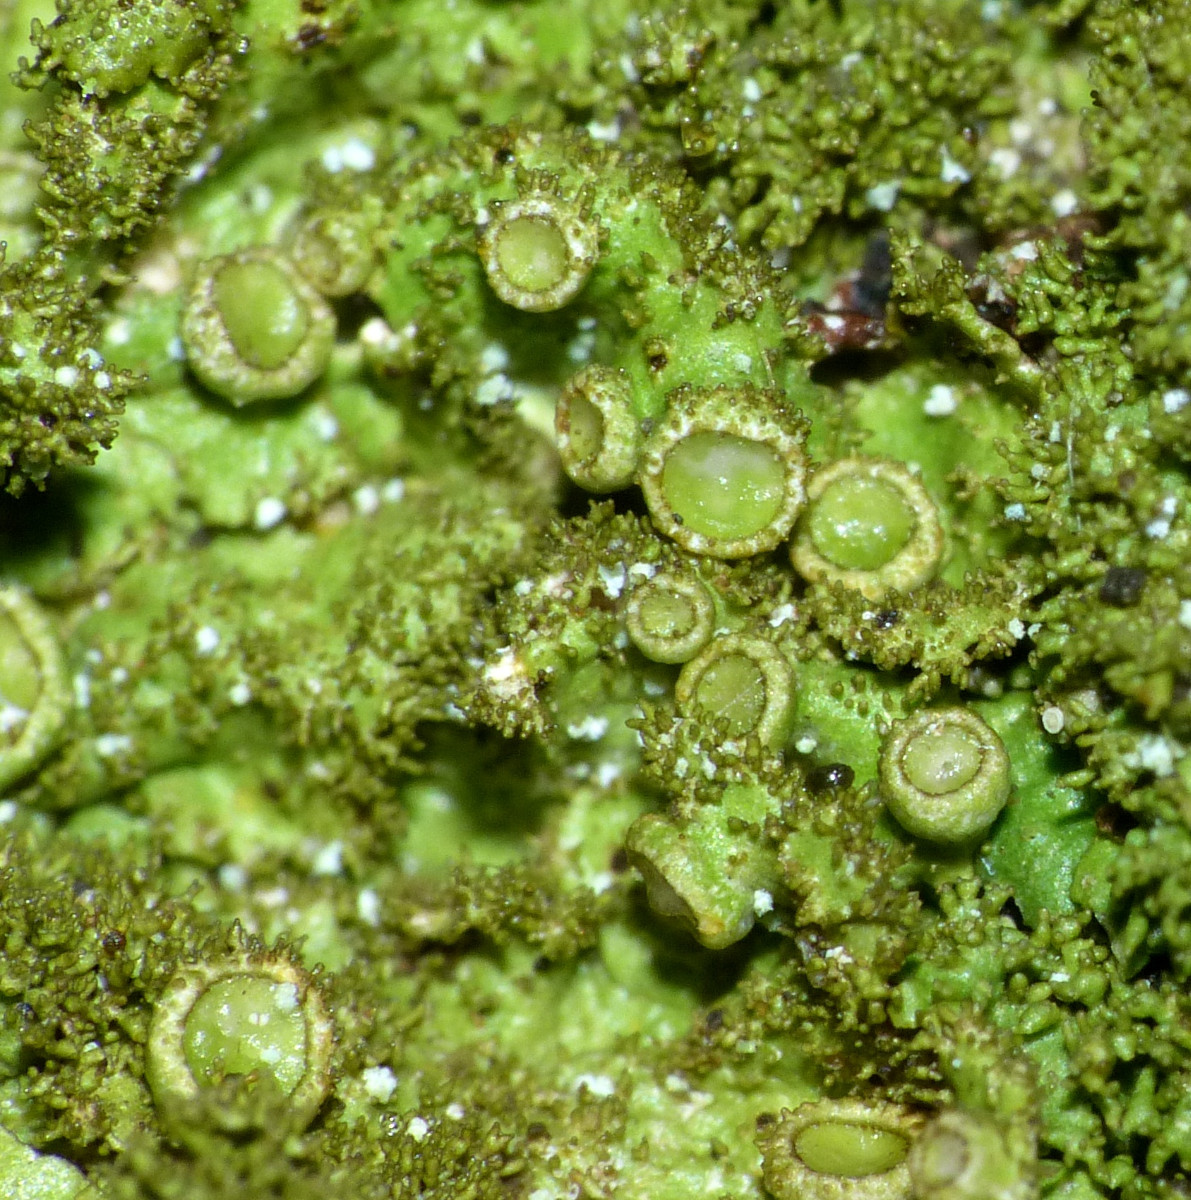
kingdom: Fungi
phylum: Ascomycota
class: Lecanoromycetes
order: Lecanorales
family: Parmeliaceae
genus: Melanelixia
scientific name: Melanelixia glabratula
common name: glinsende skållav
